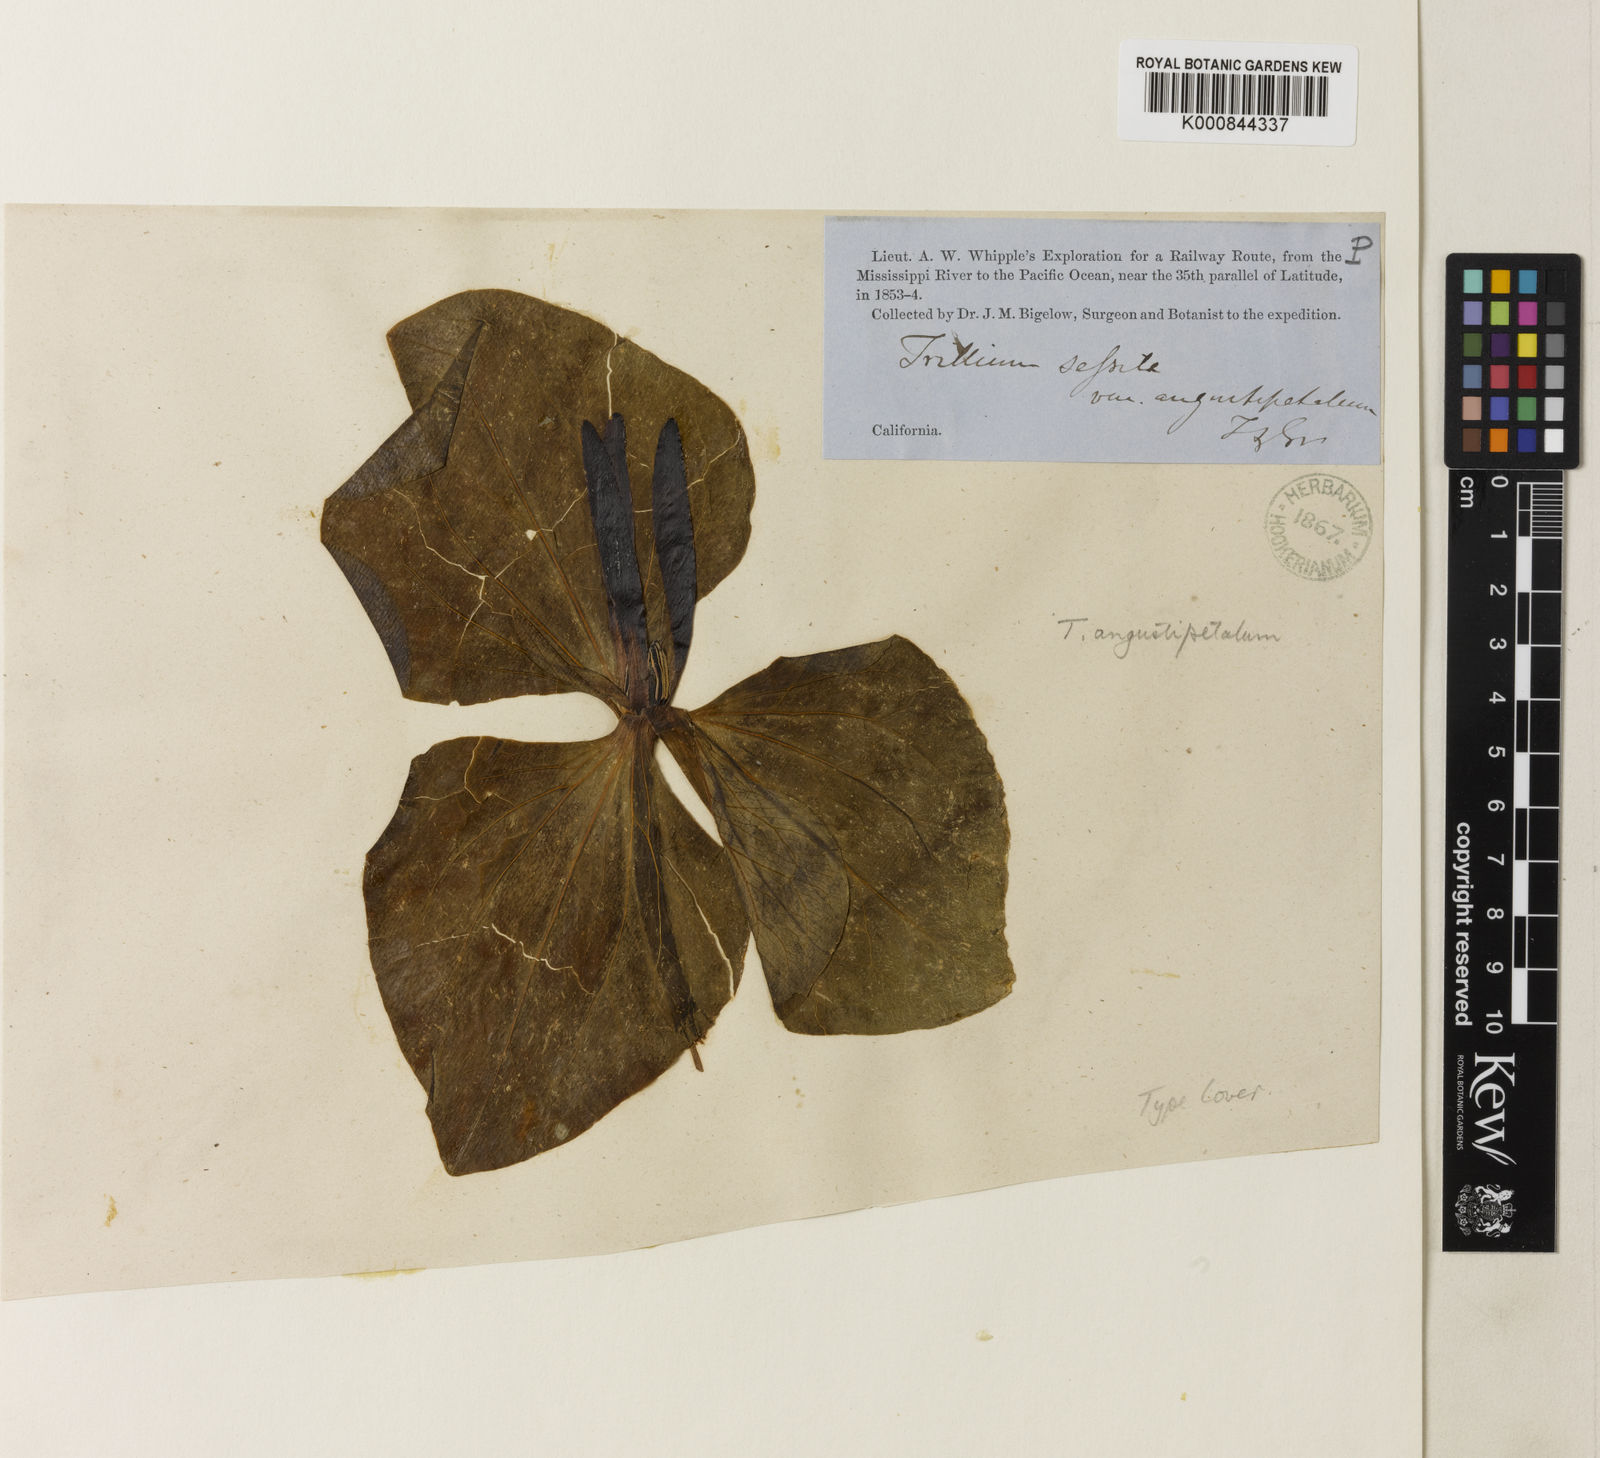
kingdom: Plantae
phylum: Tracheophyta
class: Liliopsida
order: Liliales
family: Melanthiaceae
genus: Trillium
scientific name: Trillium angustipetalum
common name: Narrow-petaled trillium
